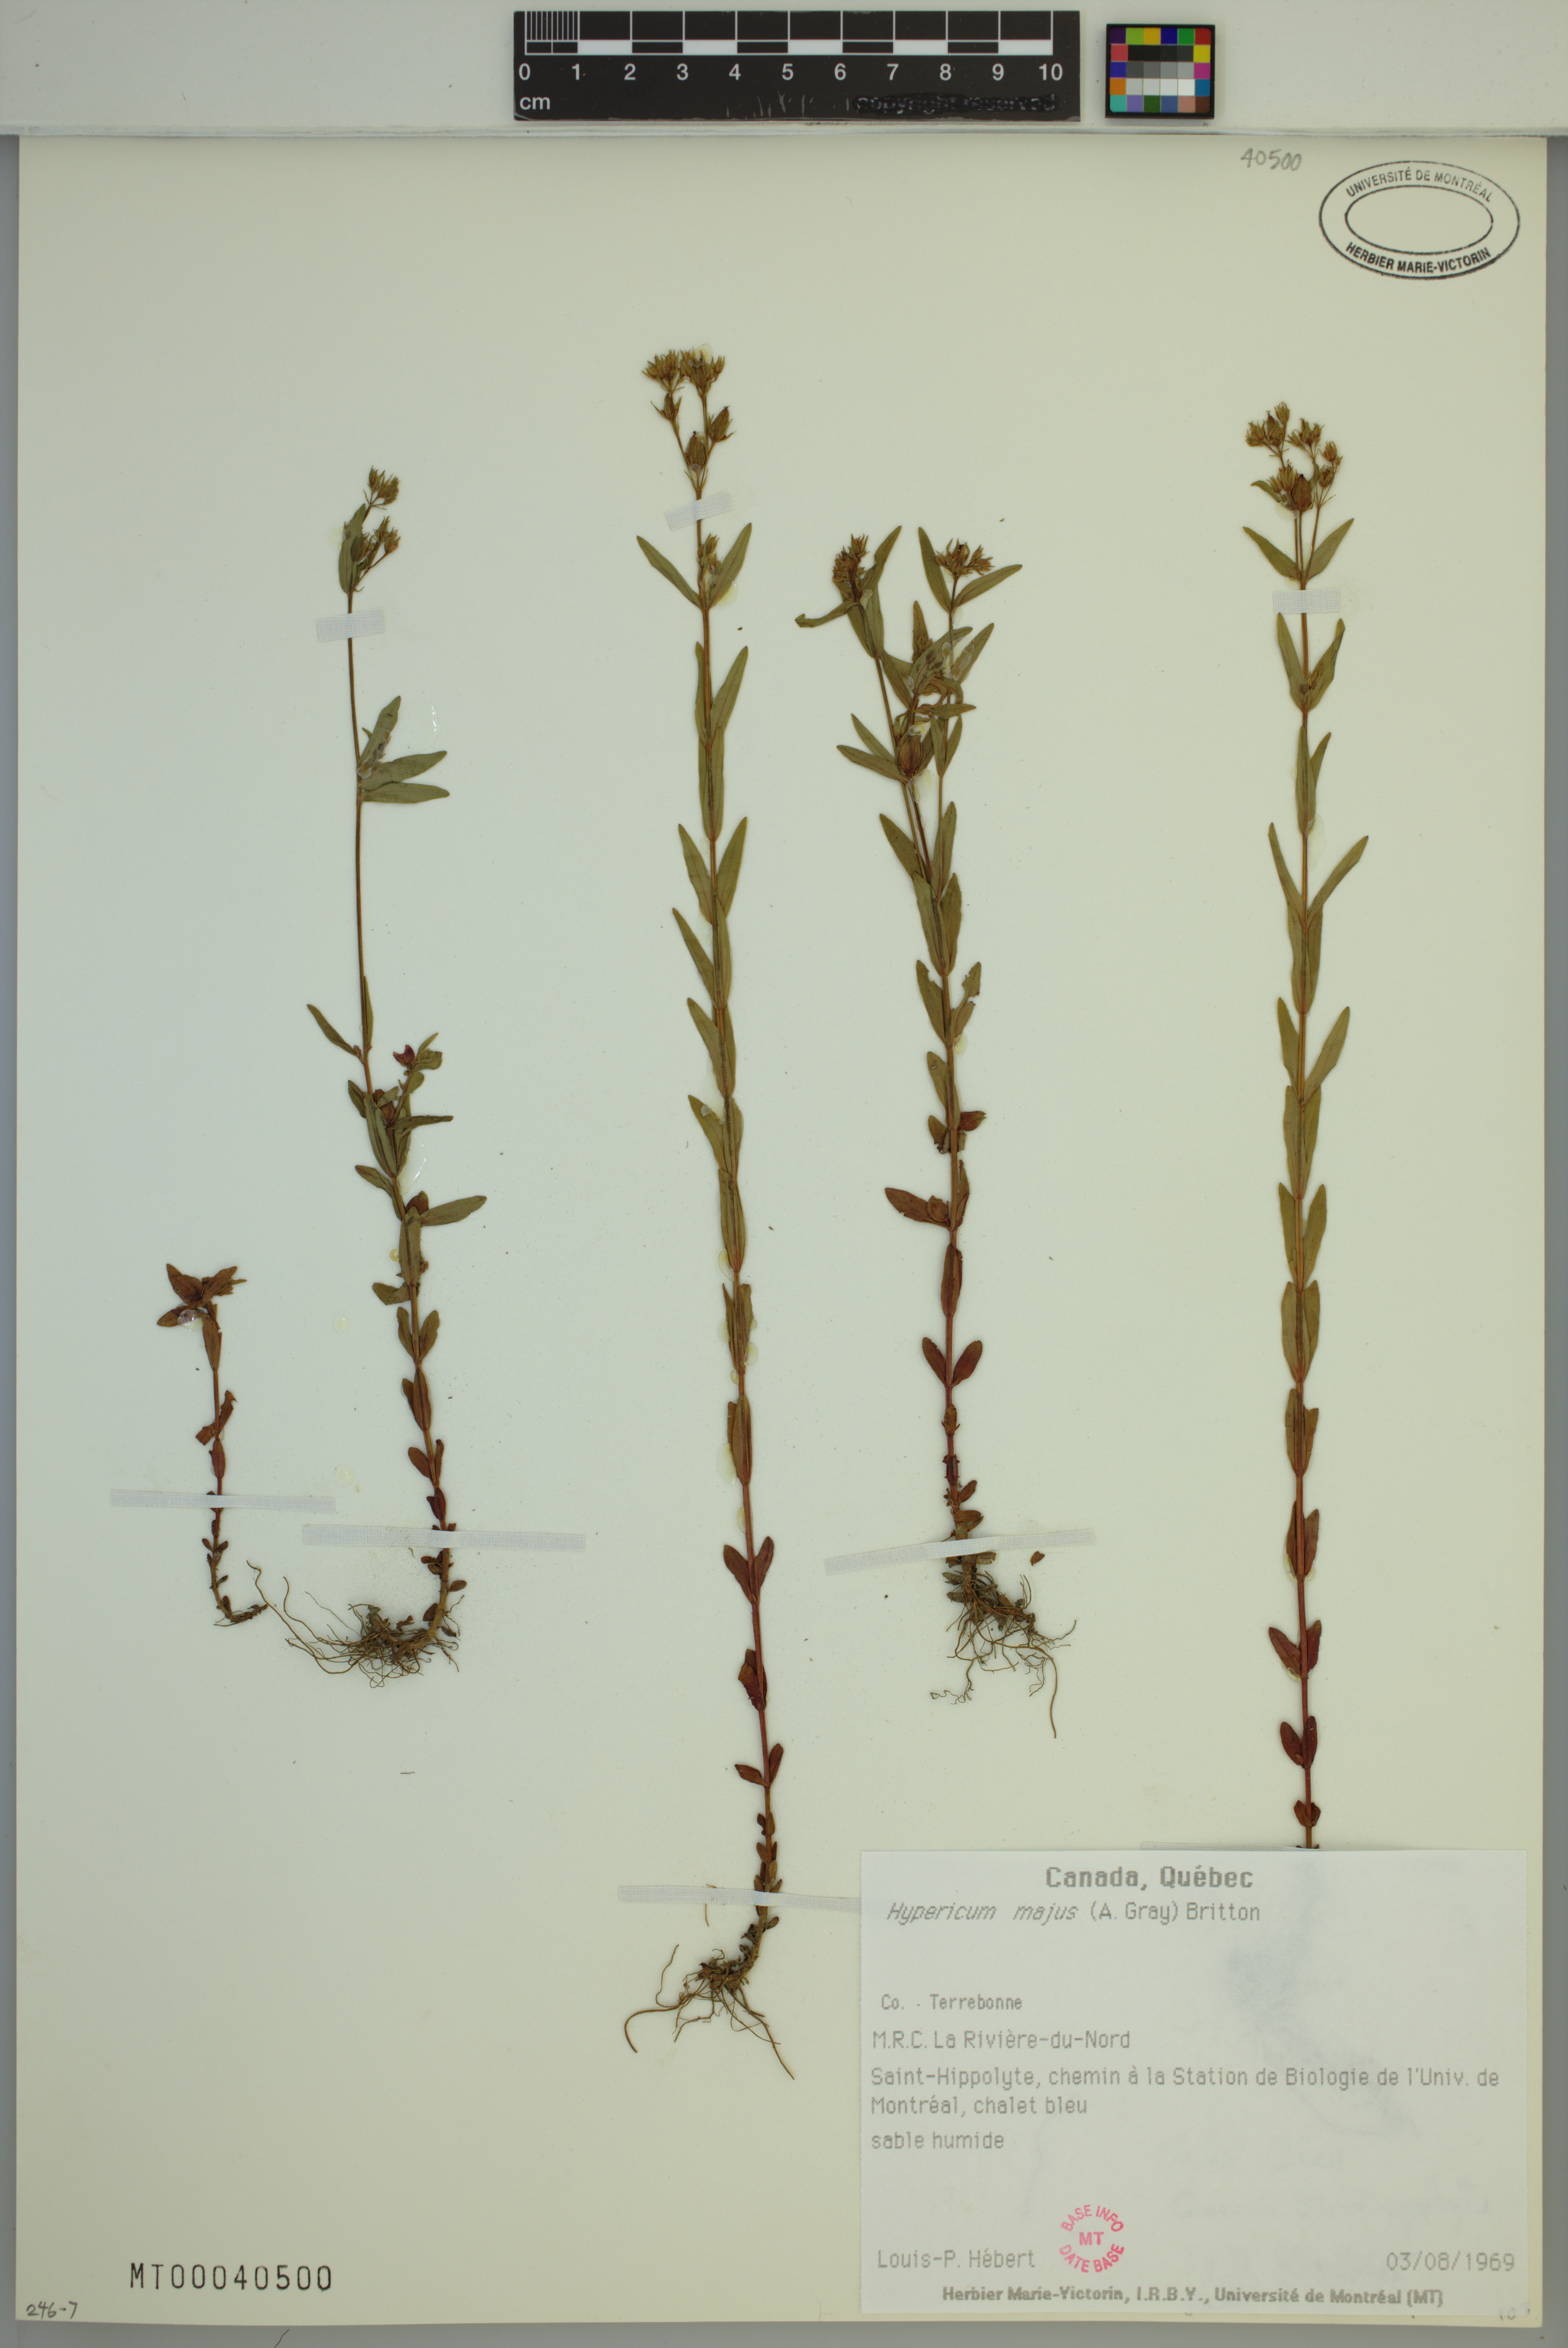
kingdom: Plantae
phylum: Tracheophyta
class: Magnoliopsida
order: Malpighiales
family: Hypericaceae
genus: Hypericum
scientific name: Hypericum majus
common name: Greater canadian st. john's-wort
